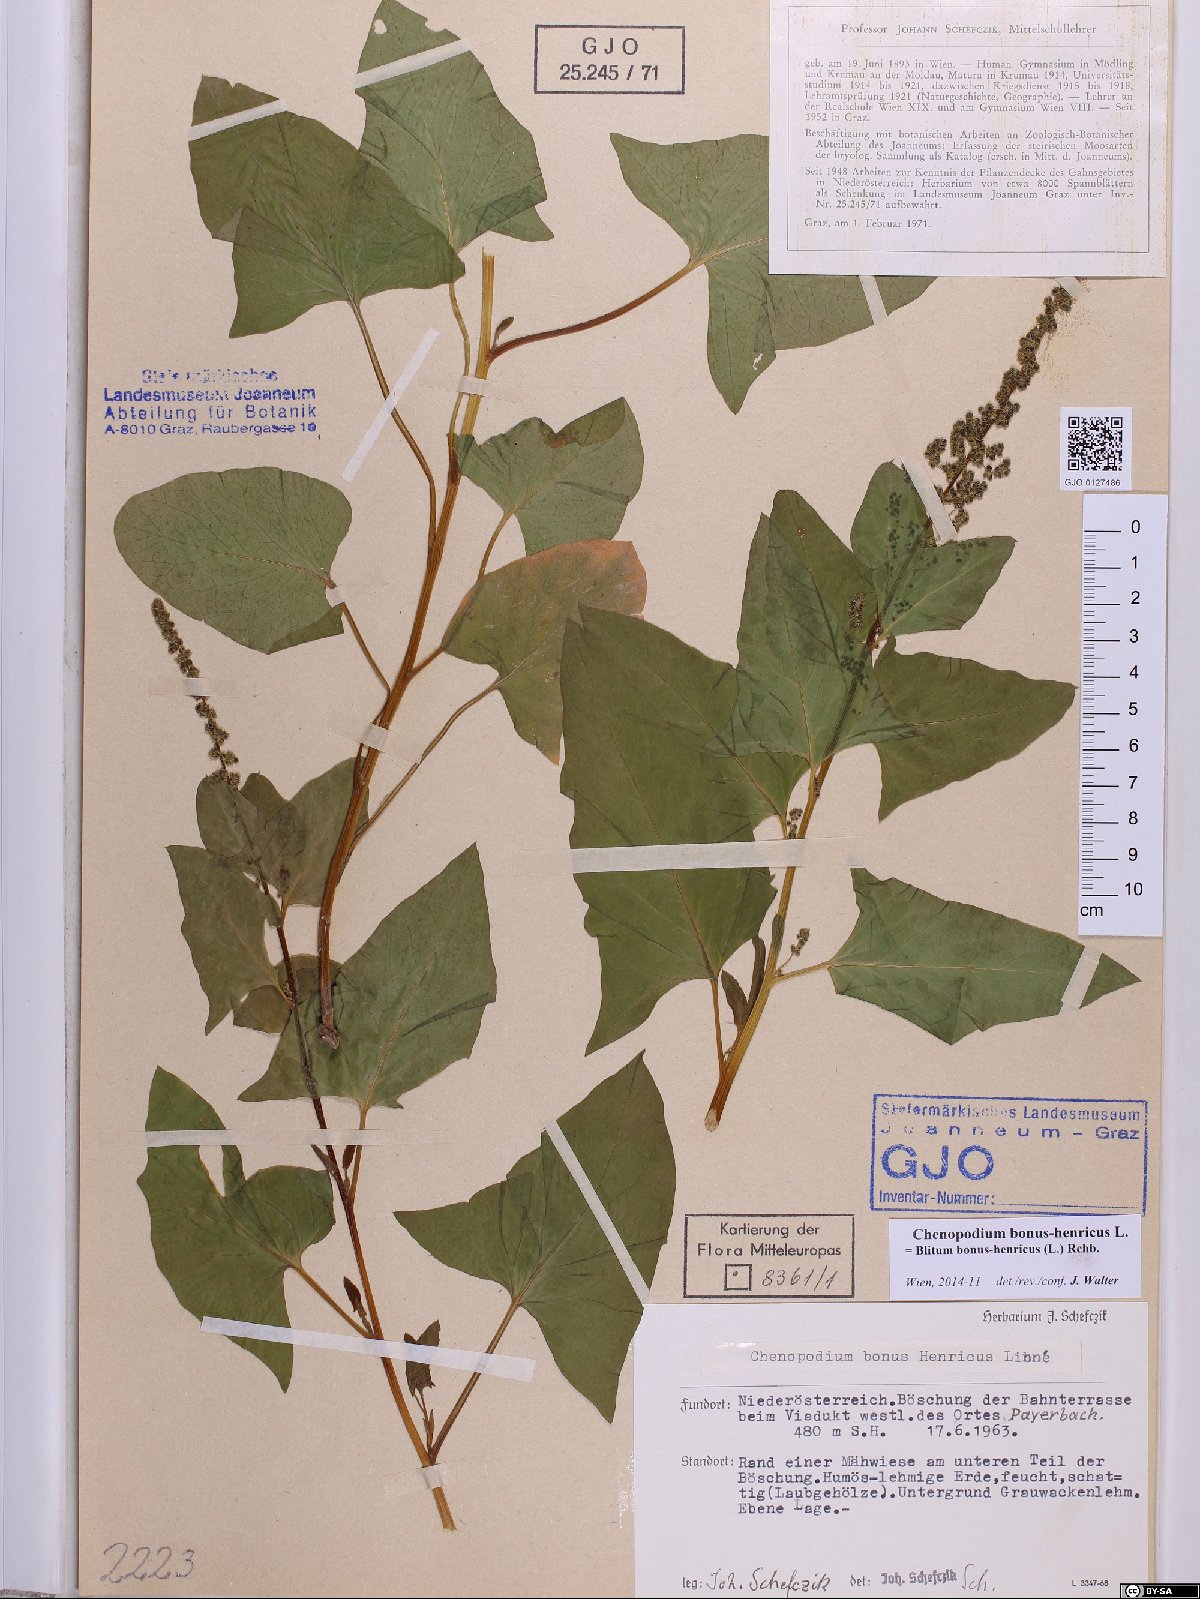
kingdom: Plantae
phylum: Tracheophyta
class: Magnoliopsida
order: Caryophyllales
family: Amaranthaceae
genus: Blitum
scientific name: Blitum bonus-henricus
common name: Good king henry
